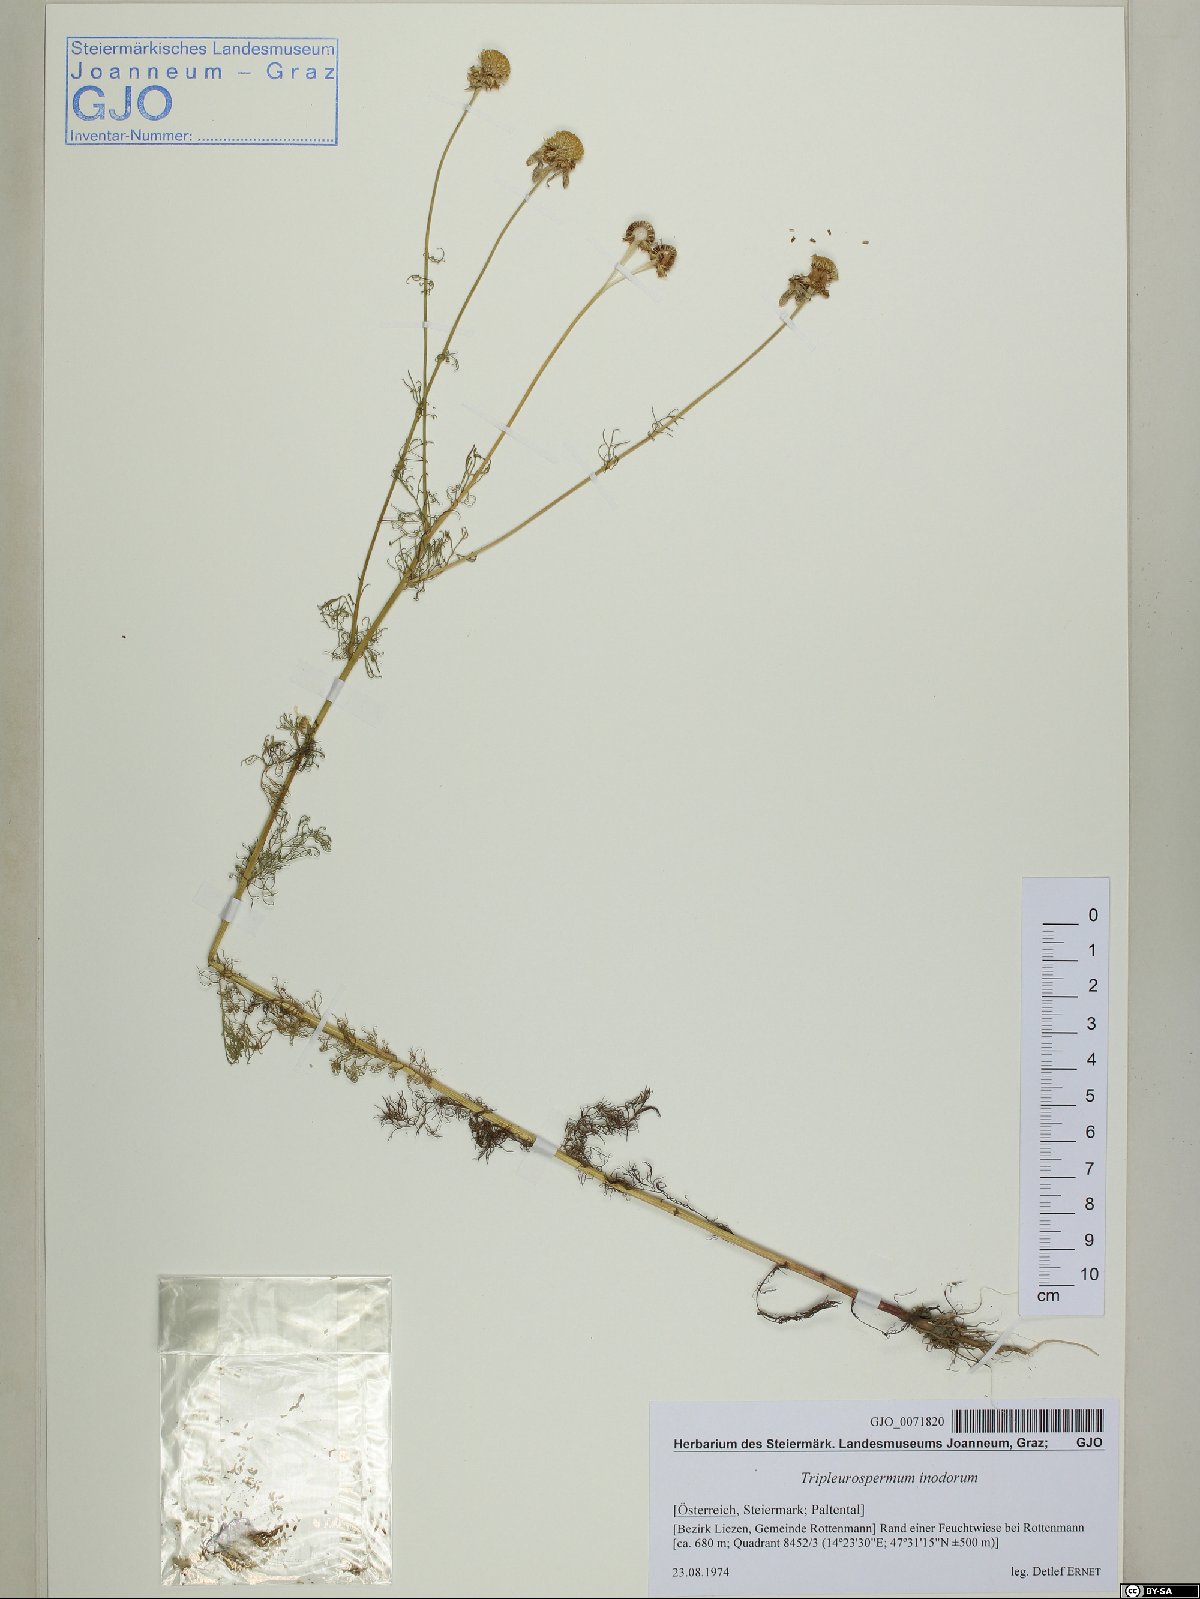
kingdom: Plantae
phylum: Tracheophyta
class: Magnoliopsida
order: Asterales
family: Asteraceae
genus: Tripleurospermum
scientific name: Tripleurospermum inodorum
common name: Scentless mayweed
